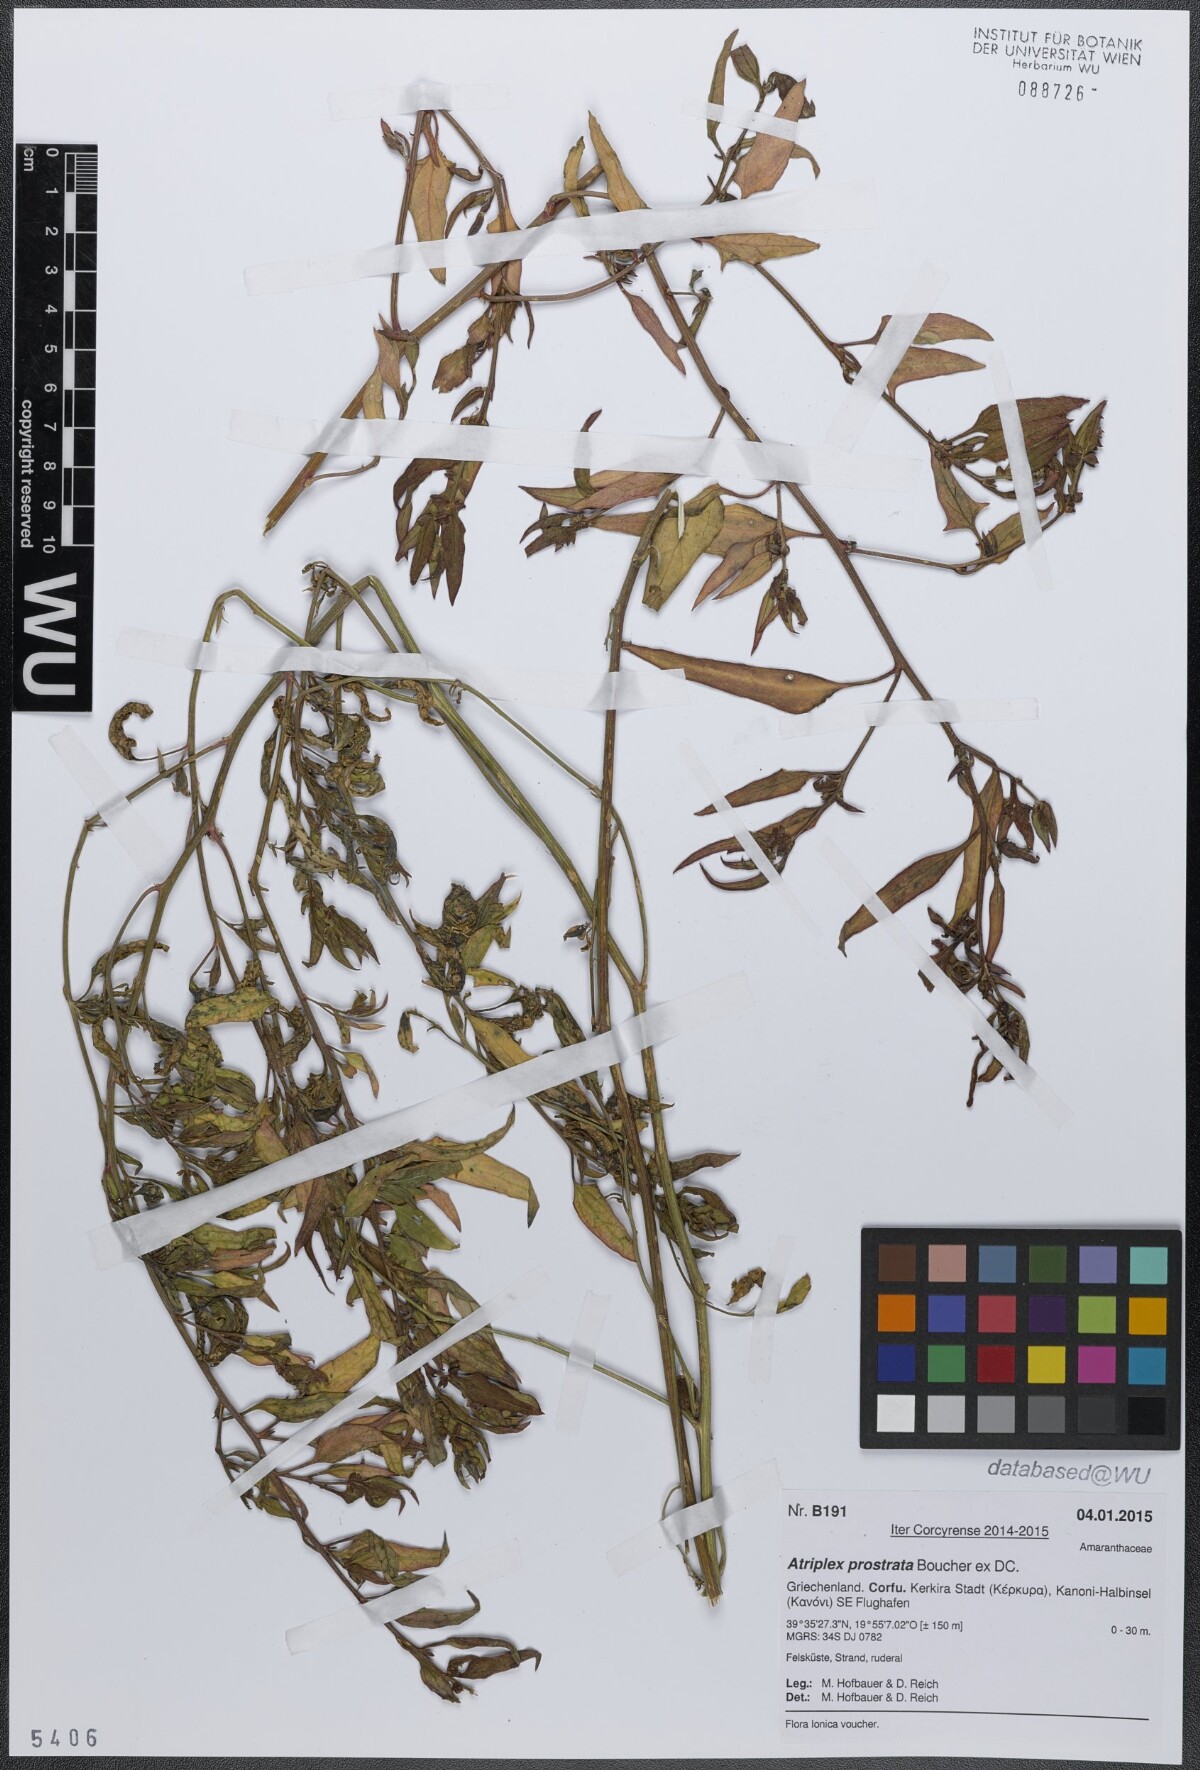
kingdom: Plantae
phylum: Tracheophyta
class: Magnoliopsida
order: Caryophyllales
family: Amaranthaceae
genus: Atriplex
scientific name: Atriplex prostrata
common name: Spear-leaved orache
